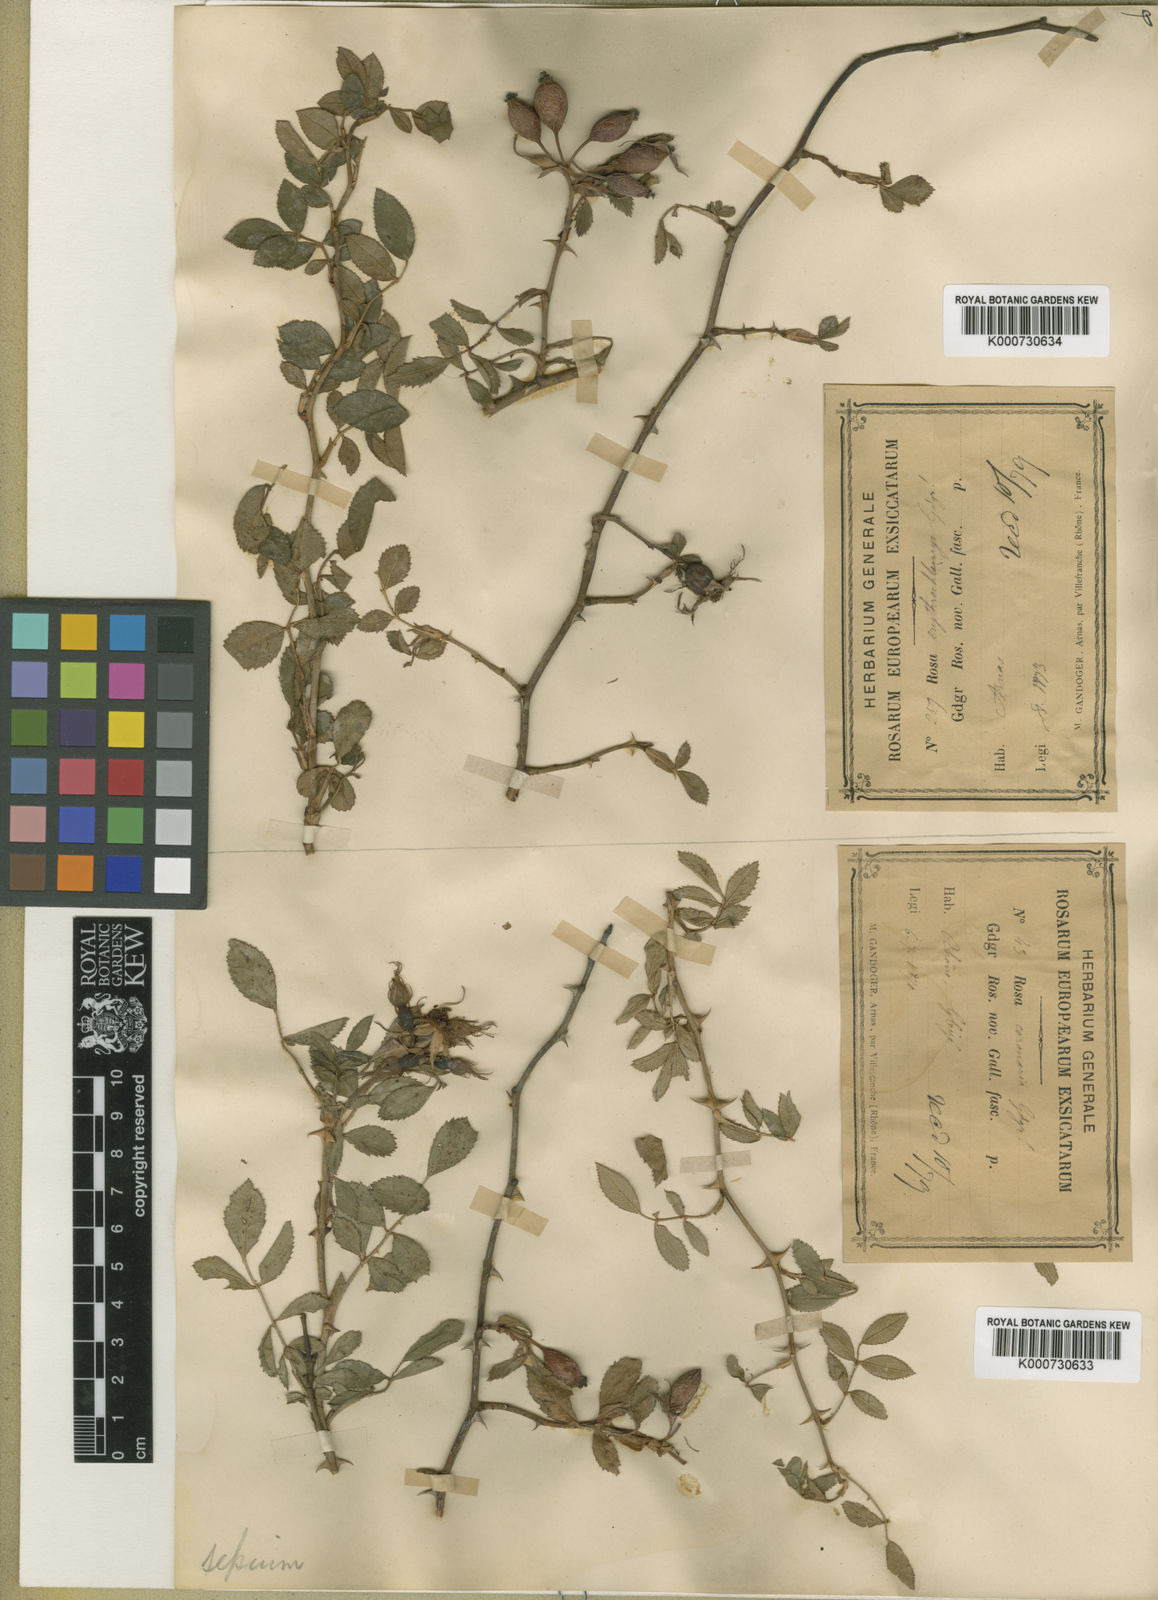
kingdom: Plantae
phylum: Tracheophyta
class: Magnoliopsida
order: Rosales
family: Rosaceae
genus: Rosa
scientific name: Rosa agrestis
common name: Fieldbriar
